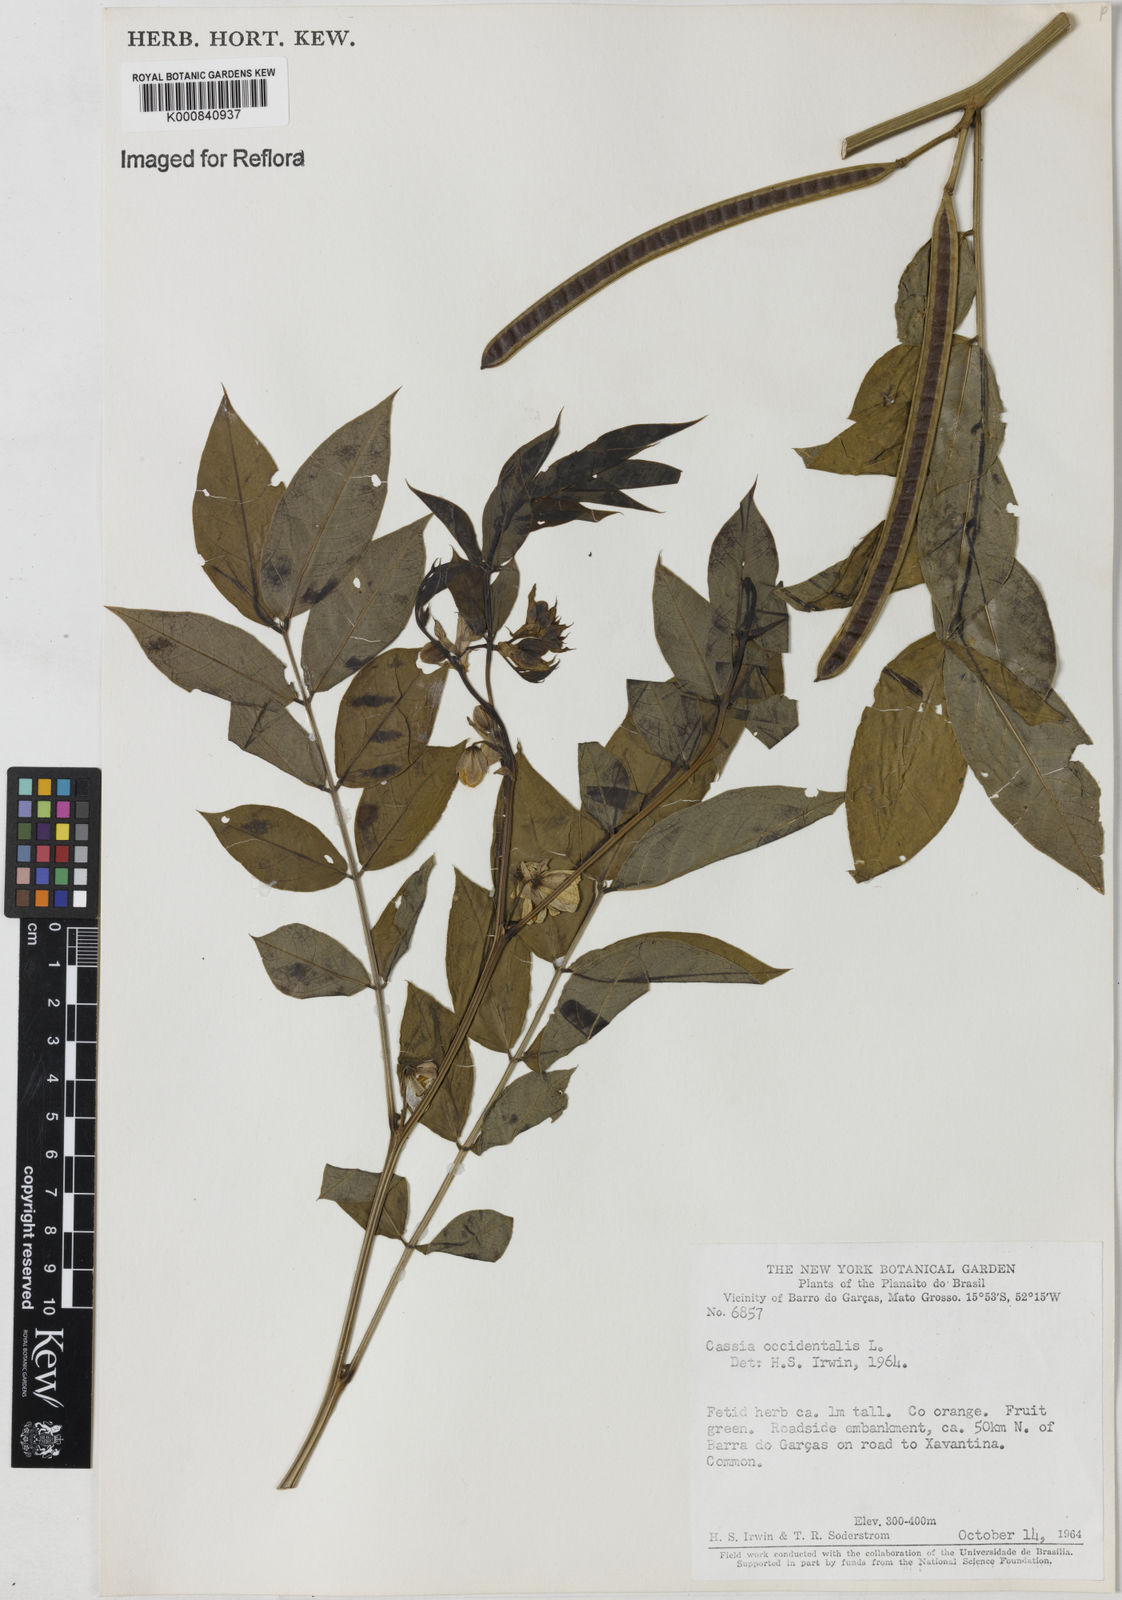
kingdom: Plantae
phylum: Tracheophyta
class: Magnoliopsida
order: Fabales
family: Fabaceae
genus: Senna
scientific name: Senna occidentalis
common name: Septicweed
